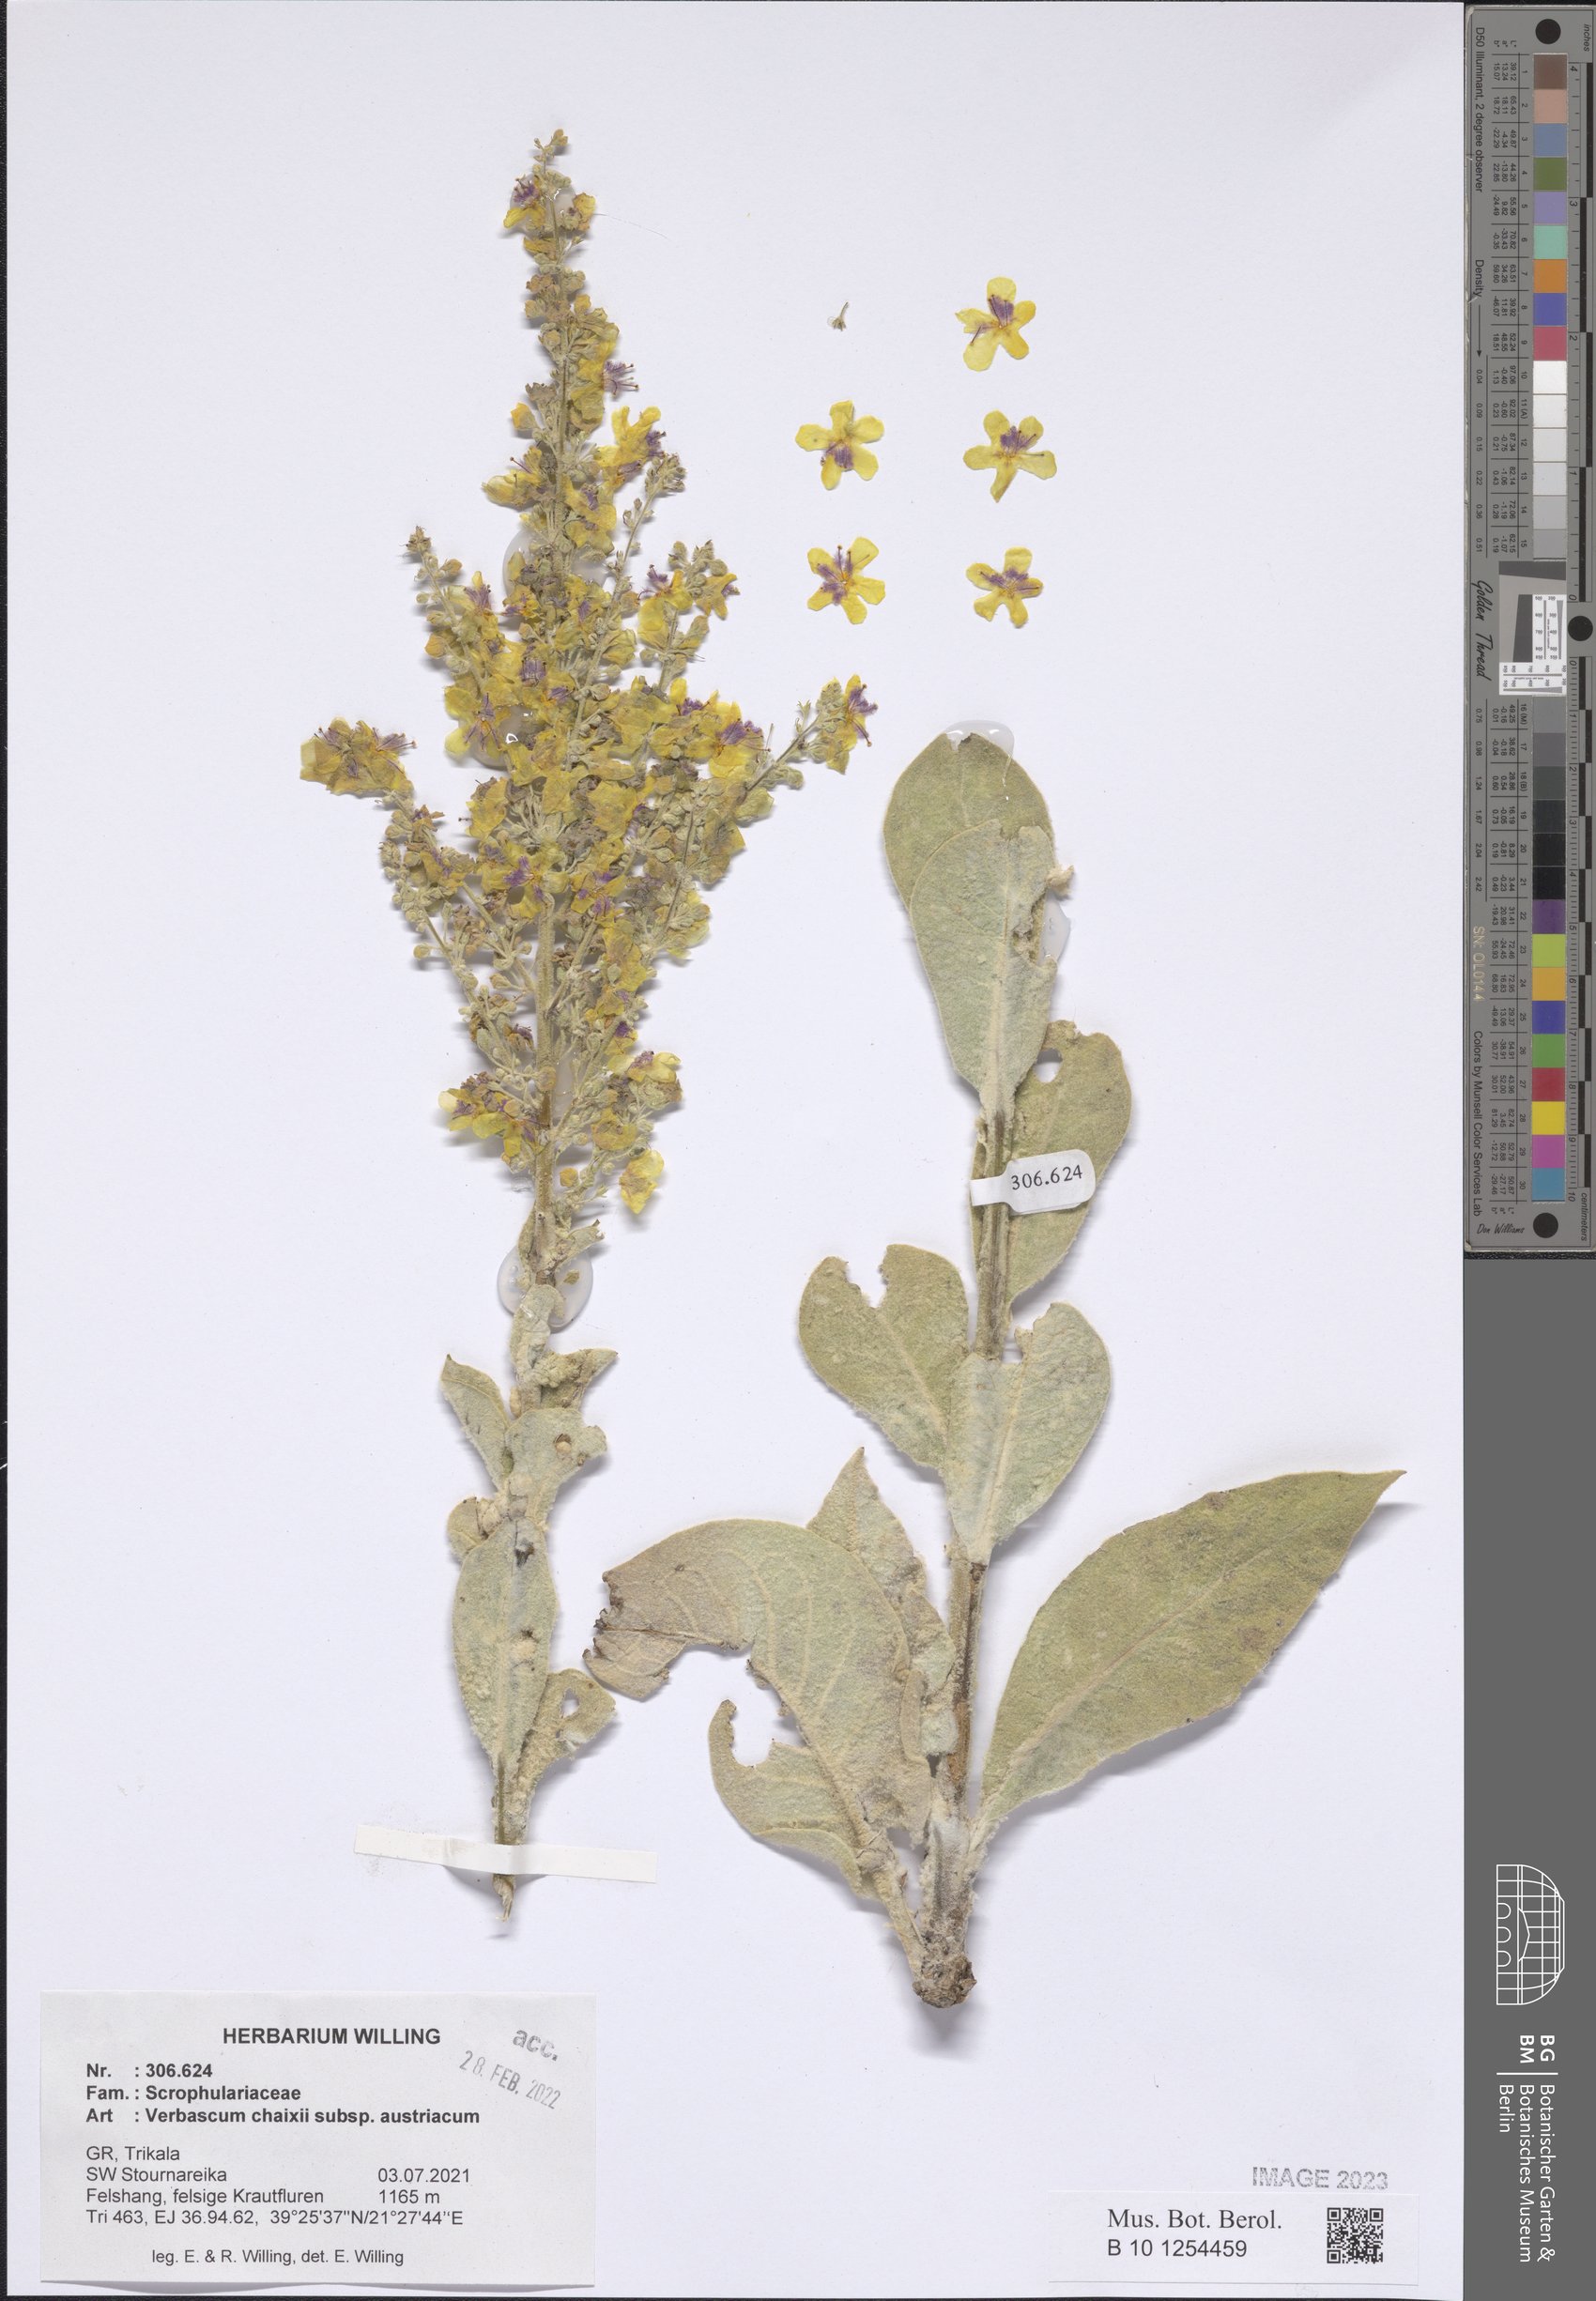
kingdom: Plantae
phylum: Tracheophyta
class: Magnoliopsida
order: Lamiales
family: Scrophulariaceae
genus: Verbascum
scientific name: Verbascum chaixii
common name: Nettle-leaved mullein
